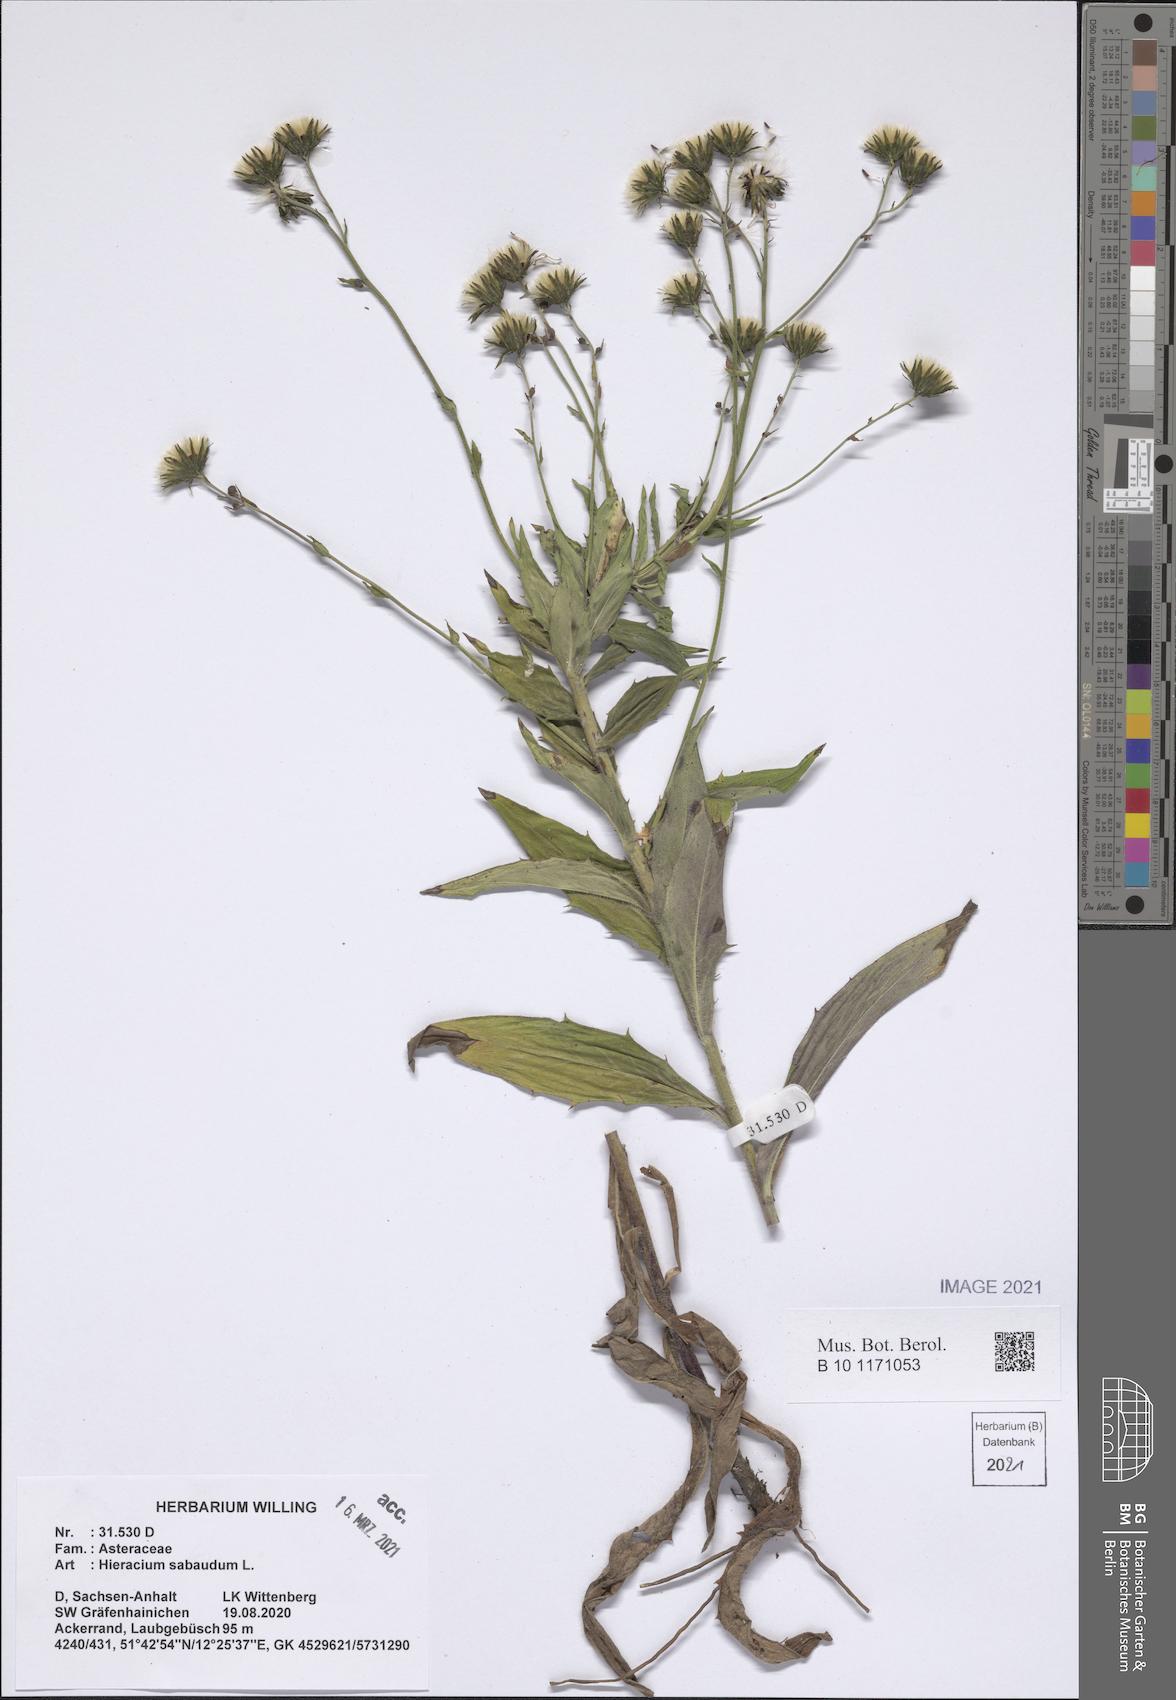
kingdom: Plantae
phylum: Tracheophyta
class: Magnoliopsida
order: Asterales
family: Asteraceae
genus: Hieracium
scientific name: Hieracium sabaudum
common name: New england hawkweed
